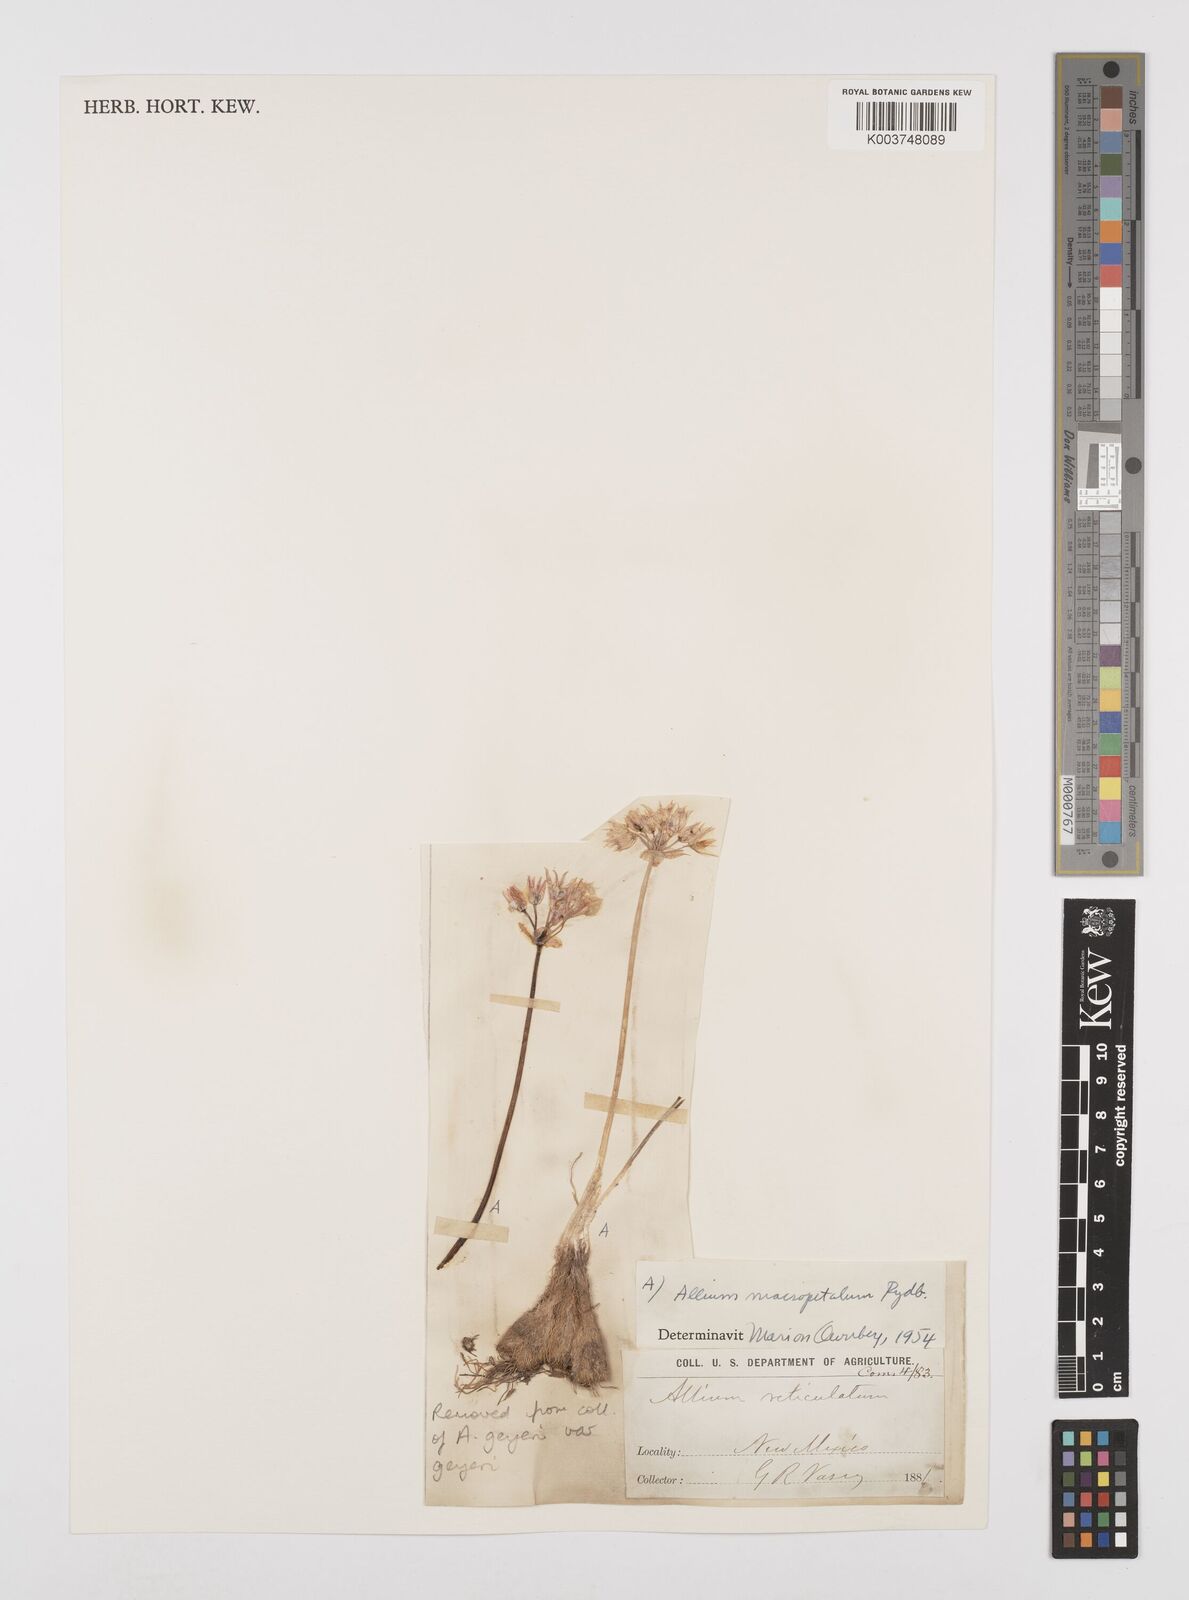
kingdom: Plantae
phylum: Tracheophyta
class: Liliopsida
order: Asparagales
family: Amaryllidaceae
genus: Allium
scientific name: Allium macropetalum
